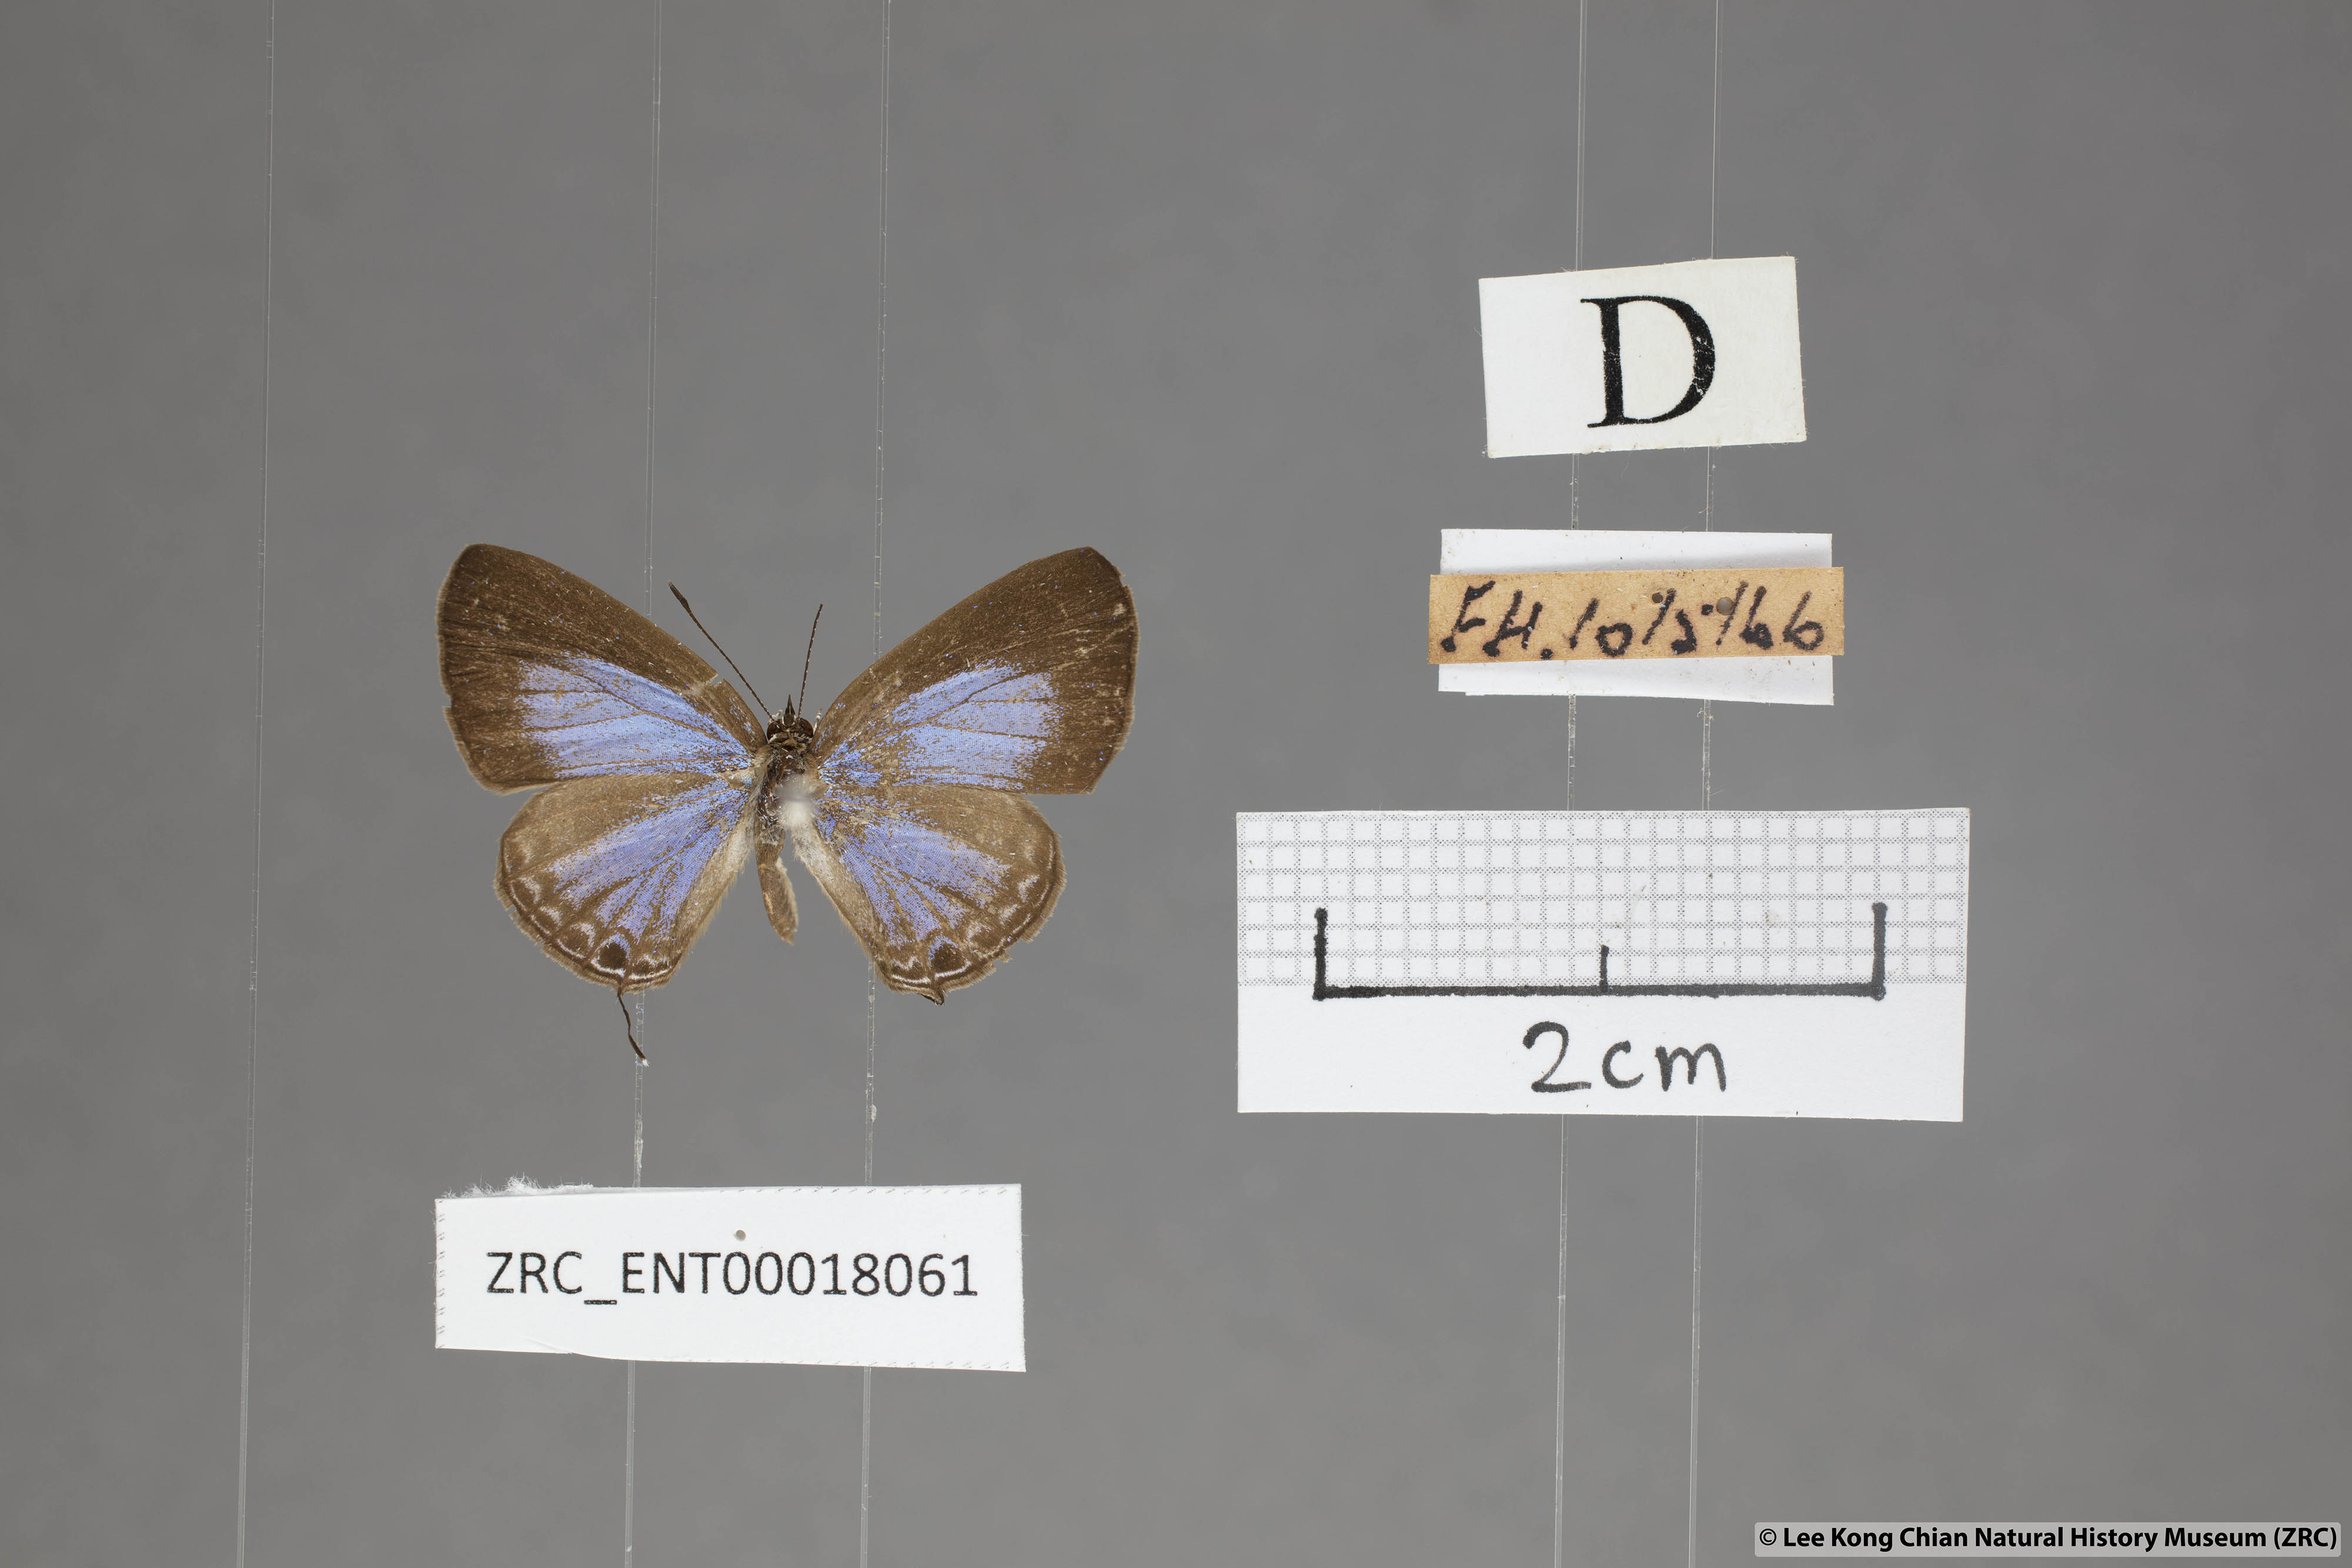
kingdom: Animalia
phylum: Arthropoda
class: Insecta
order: Lepidoptera
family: Lycaenidae
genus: Jamides
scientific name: Jamides bochus
